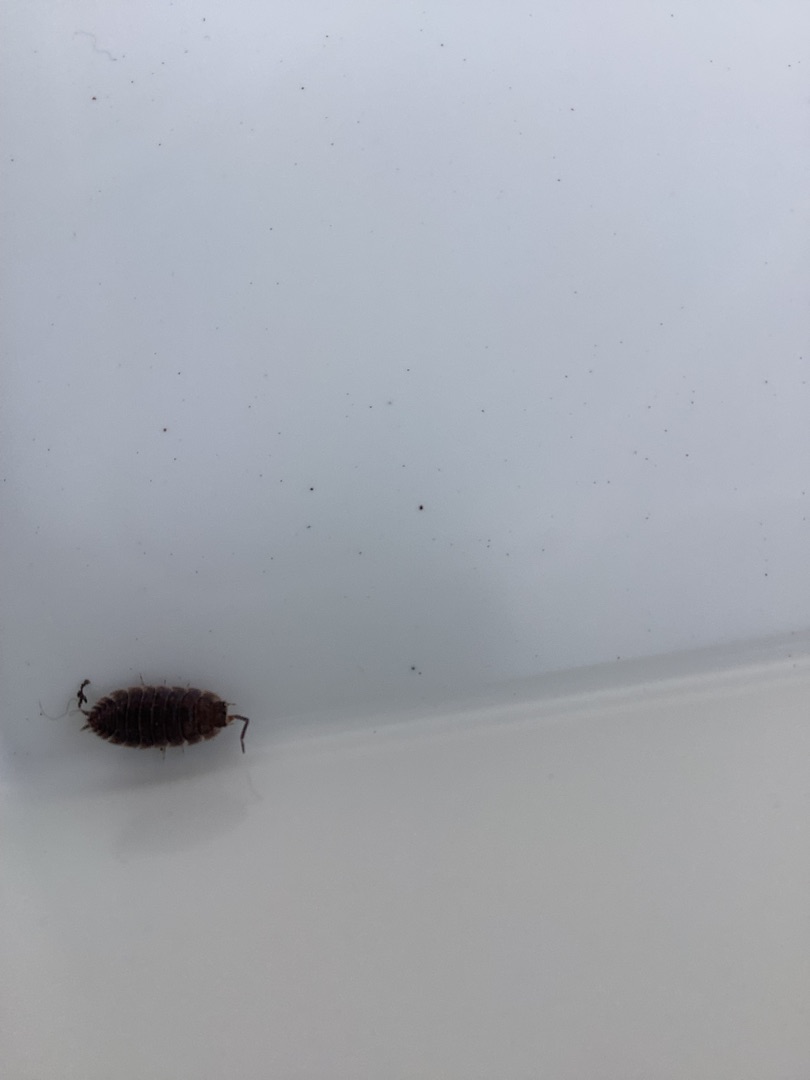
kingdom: Animalia
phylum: Arthropoda
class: Malacostraca
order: Isopoda
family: Porcellionidae
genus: Porcellio
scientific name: Porcellio scaber
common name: Grå bænkebider
